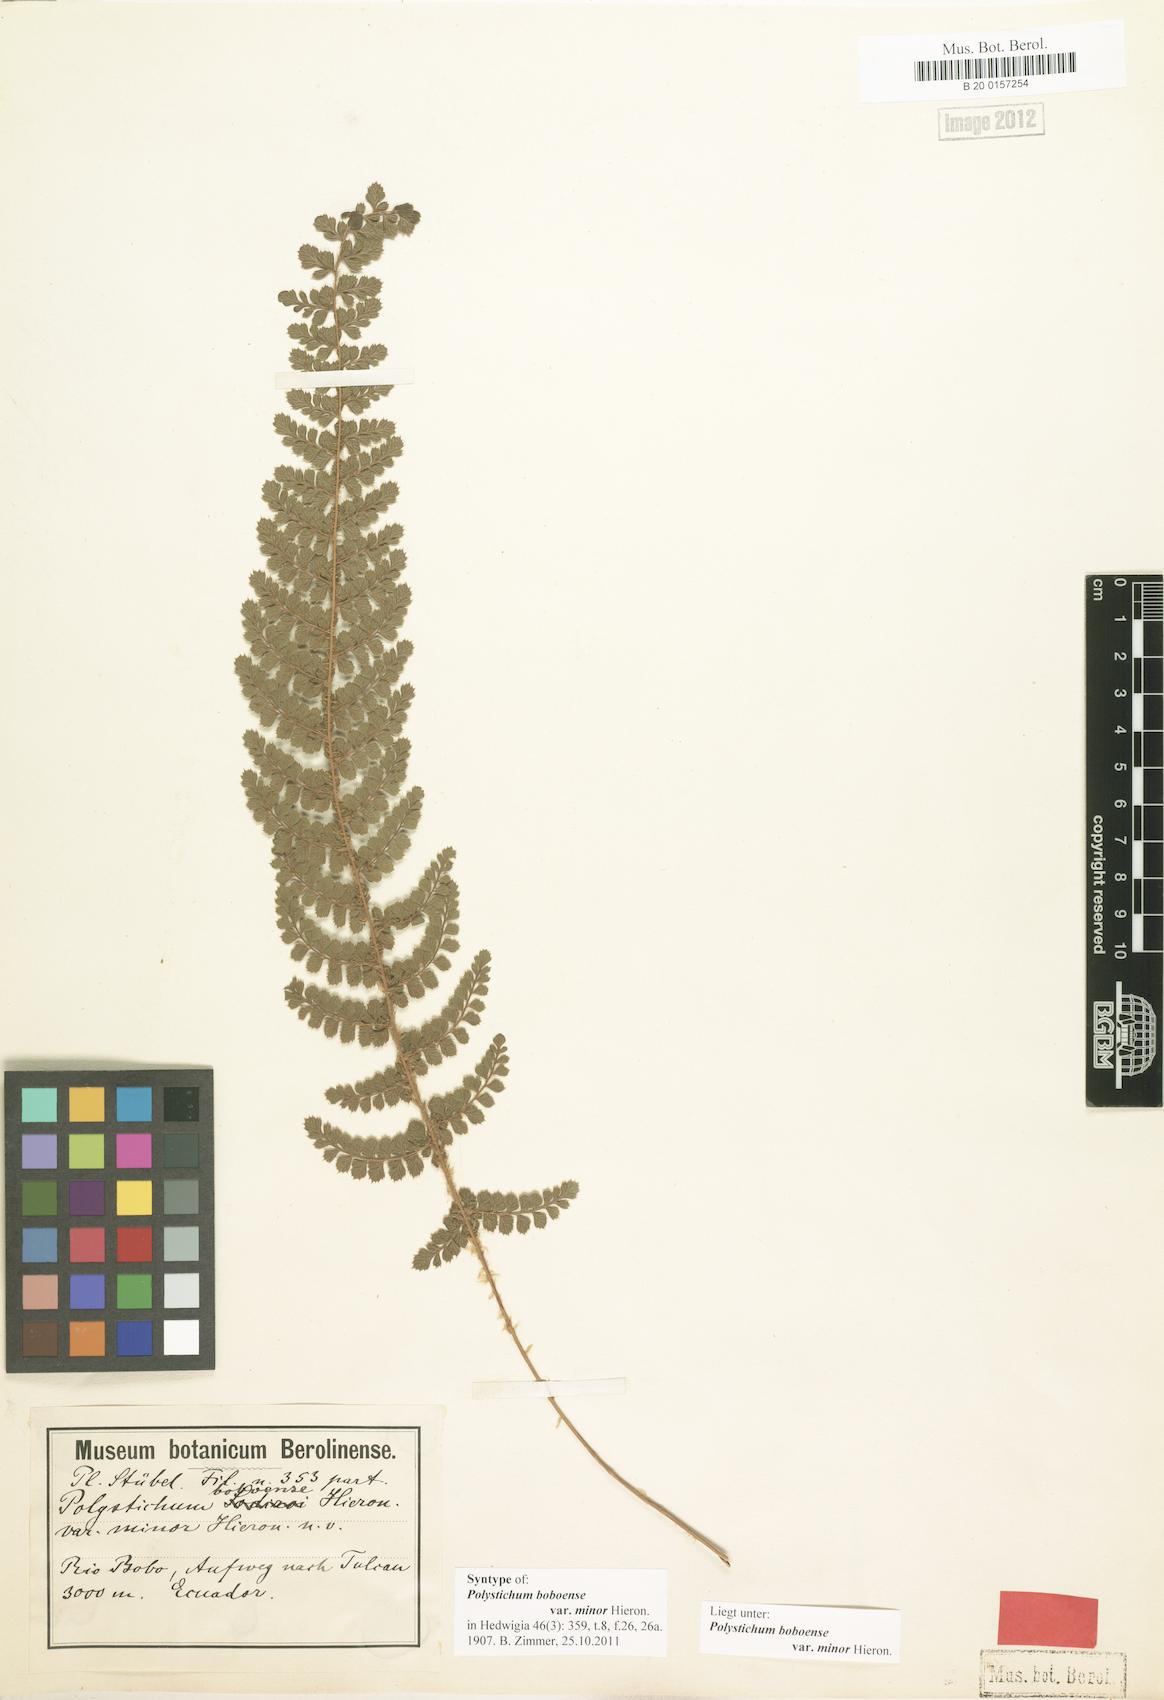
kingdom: Plantae
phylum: Tracheophyta
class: Polypodiopsida
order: Polypodiales
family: Dryopteridaceae
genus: Polystichum
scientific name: Polystichum orbiculatum
